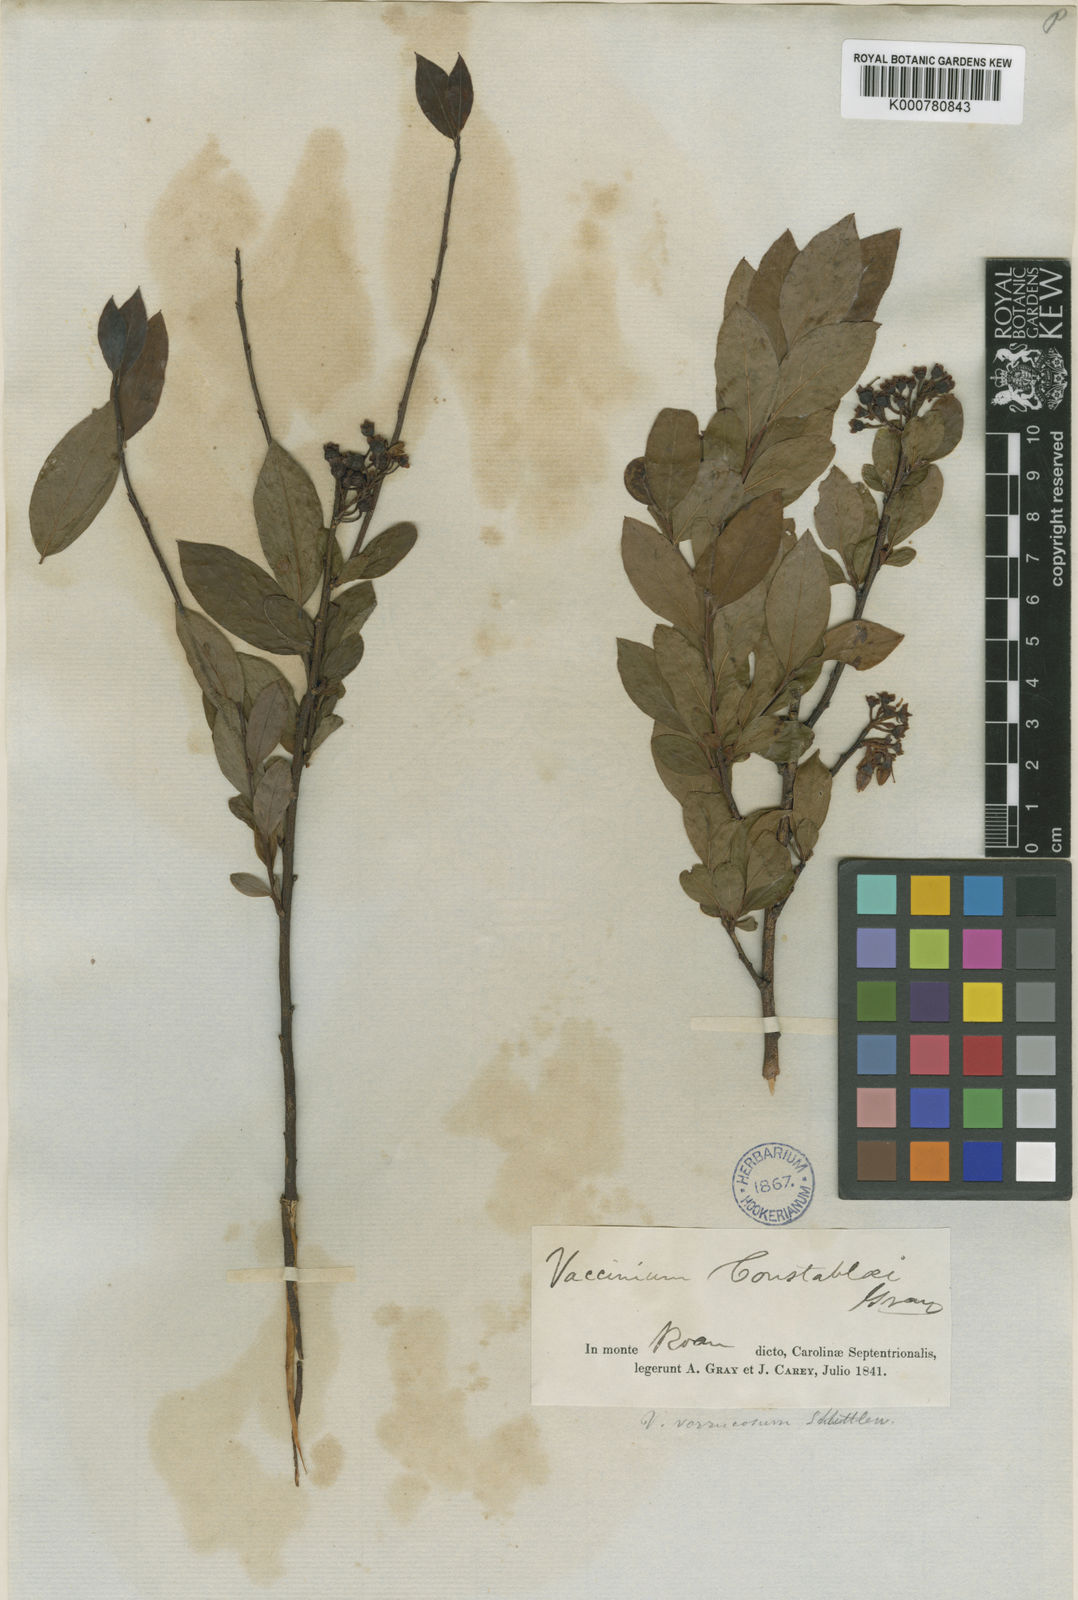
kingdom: Plantae
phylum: Tracheophyta
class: Magnoliopsida
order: Ericales
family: Ericaceae
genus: Vaccinium
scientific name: Vaccinium pallidum
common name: Blue ridge blueberry
